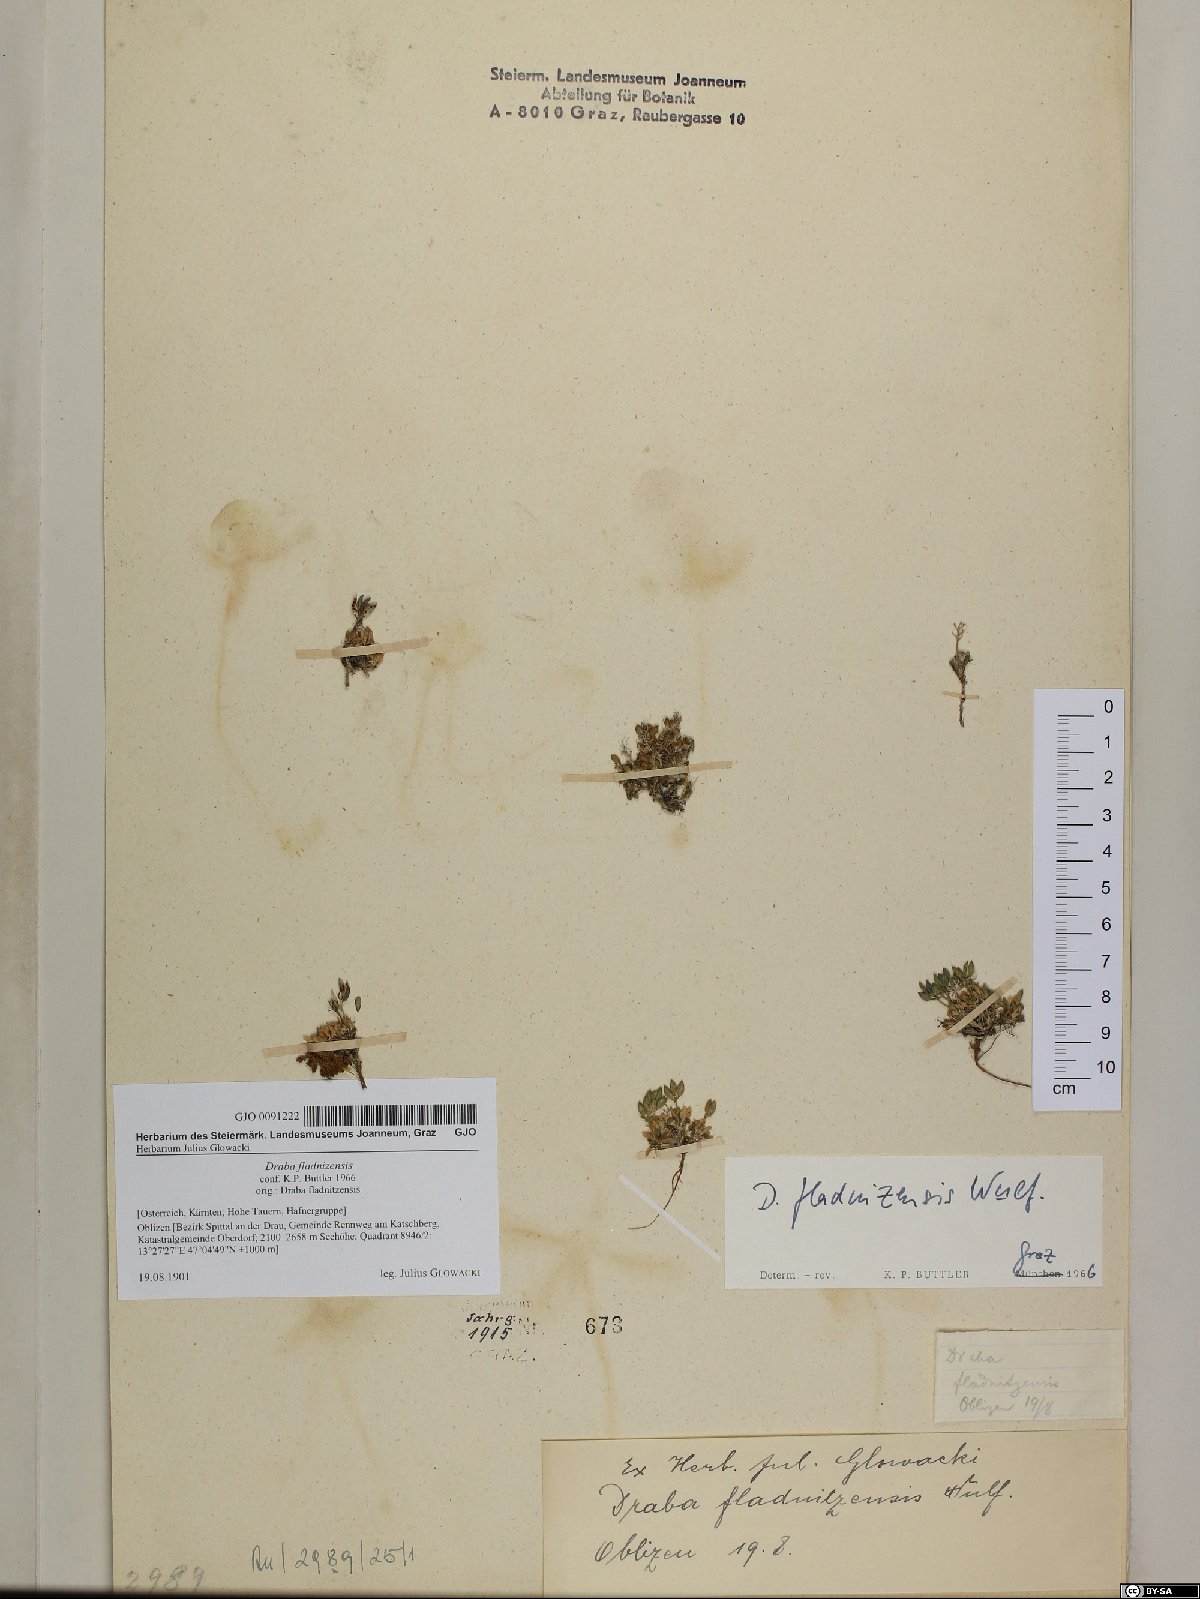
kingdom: Plantae
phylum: Tracheophyta
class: Magnoliopsida
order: Brassicales
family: Brassicaceae
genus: Draba
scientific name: Draba fladnizensis
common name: Austrian draba
